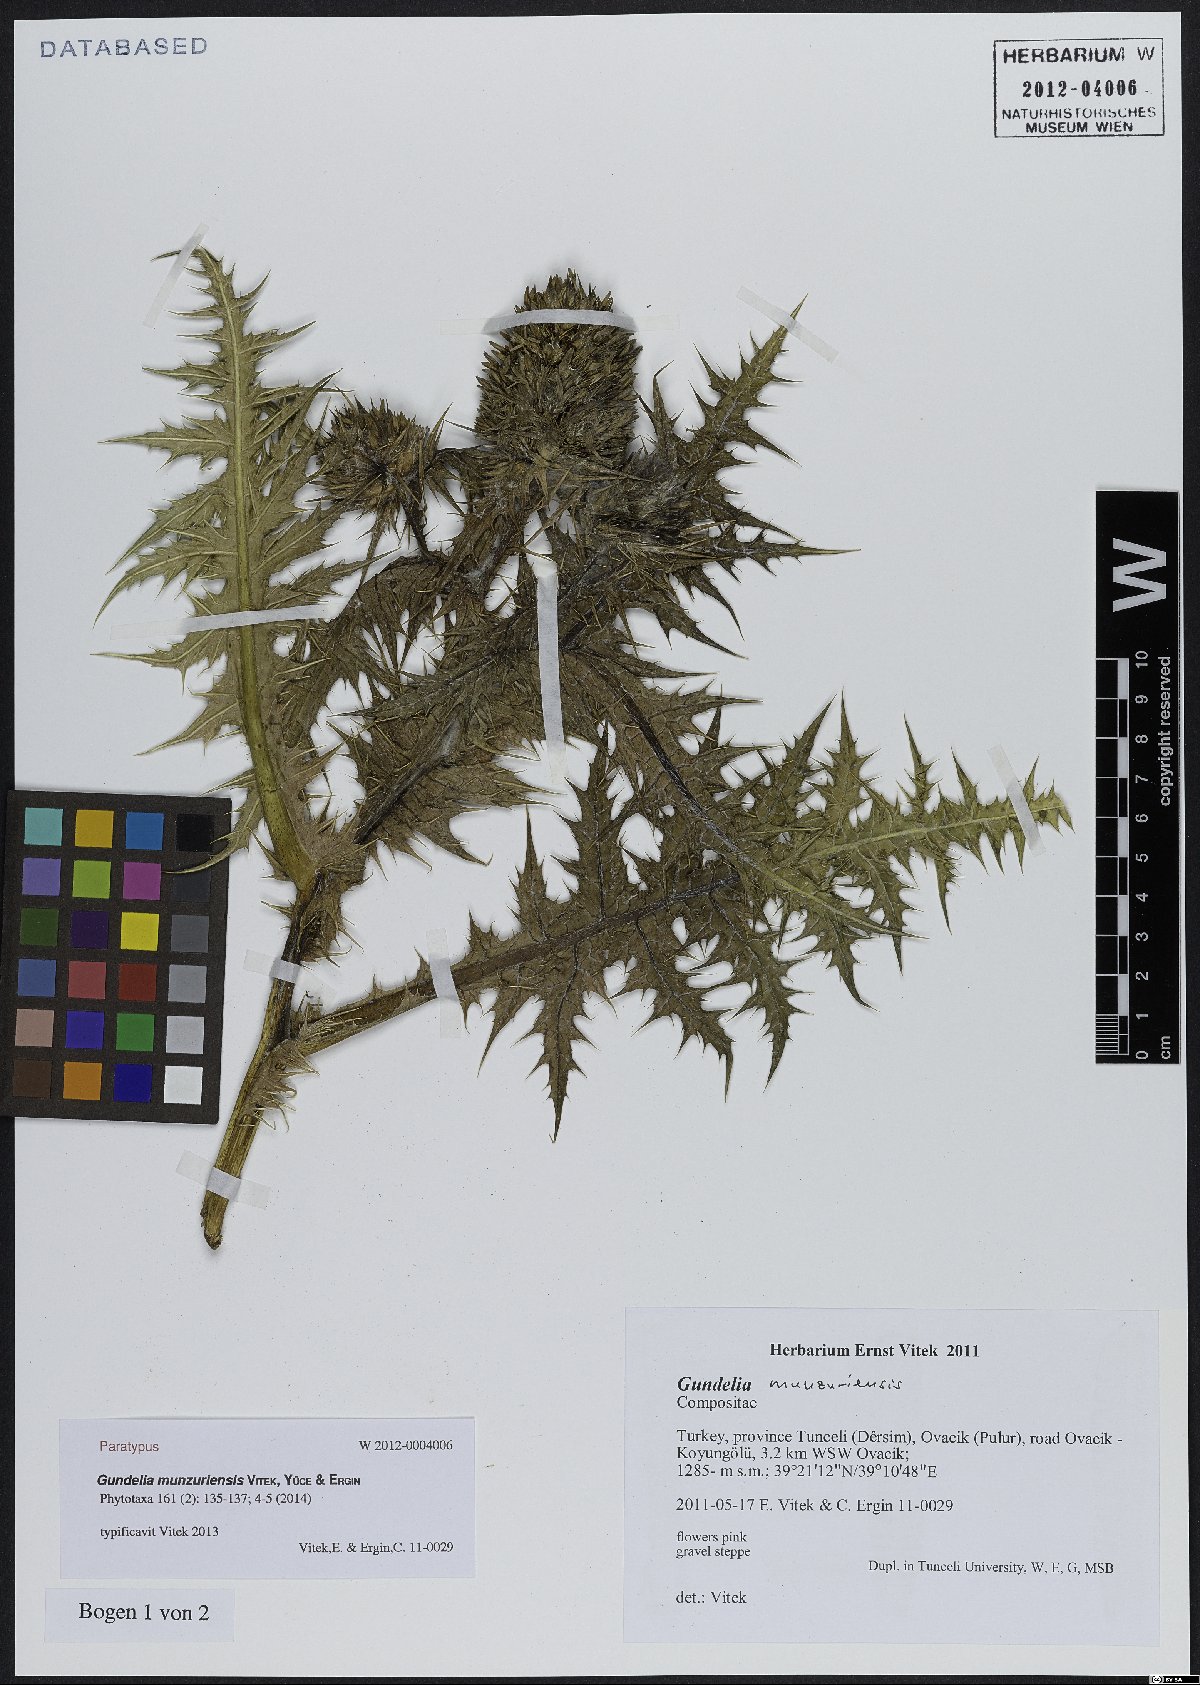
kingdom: Plantae
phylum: Tracheophyta
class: Magnoliopsida
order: Asterales
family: Asteraceae
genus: Gundelia
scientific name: Gundelia munzuriensis
